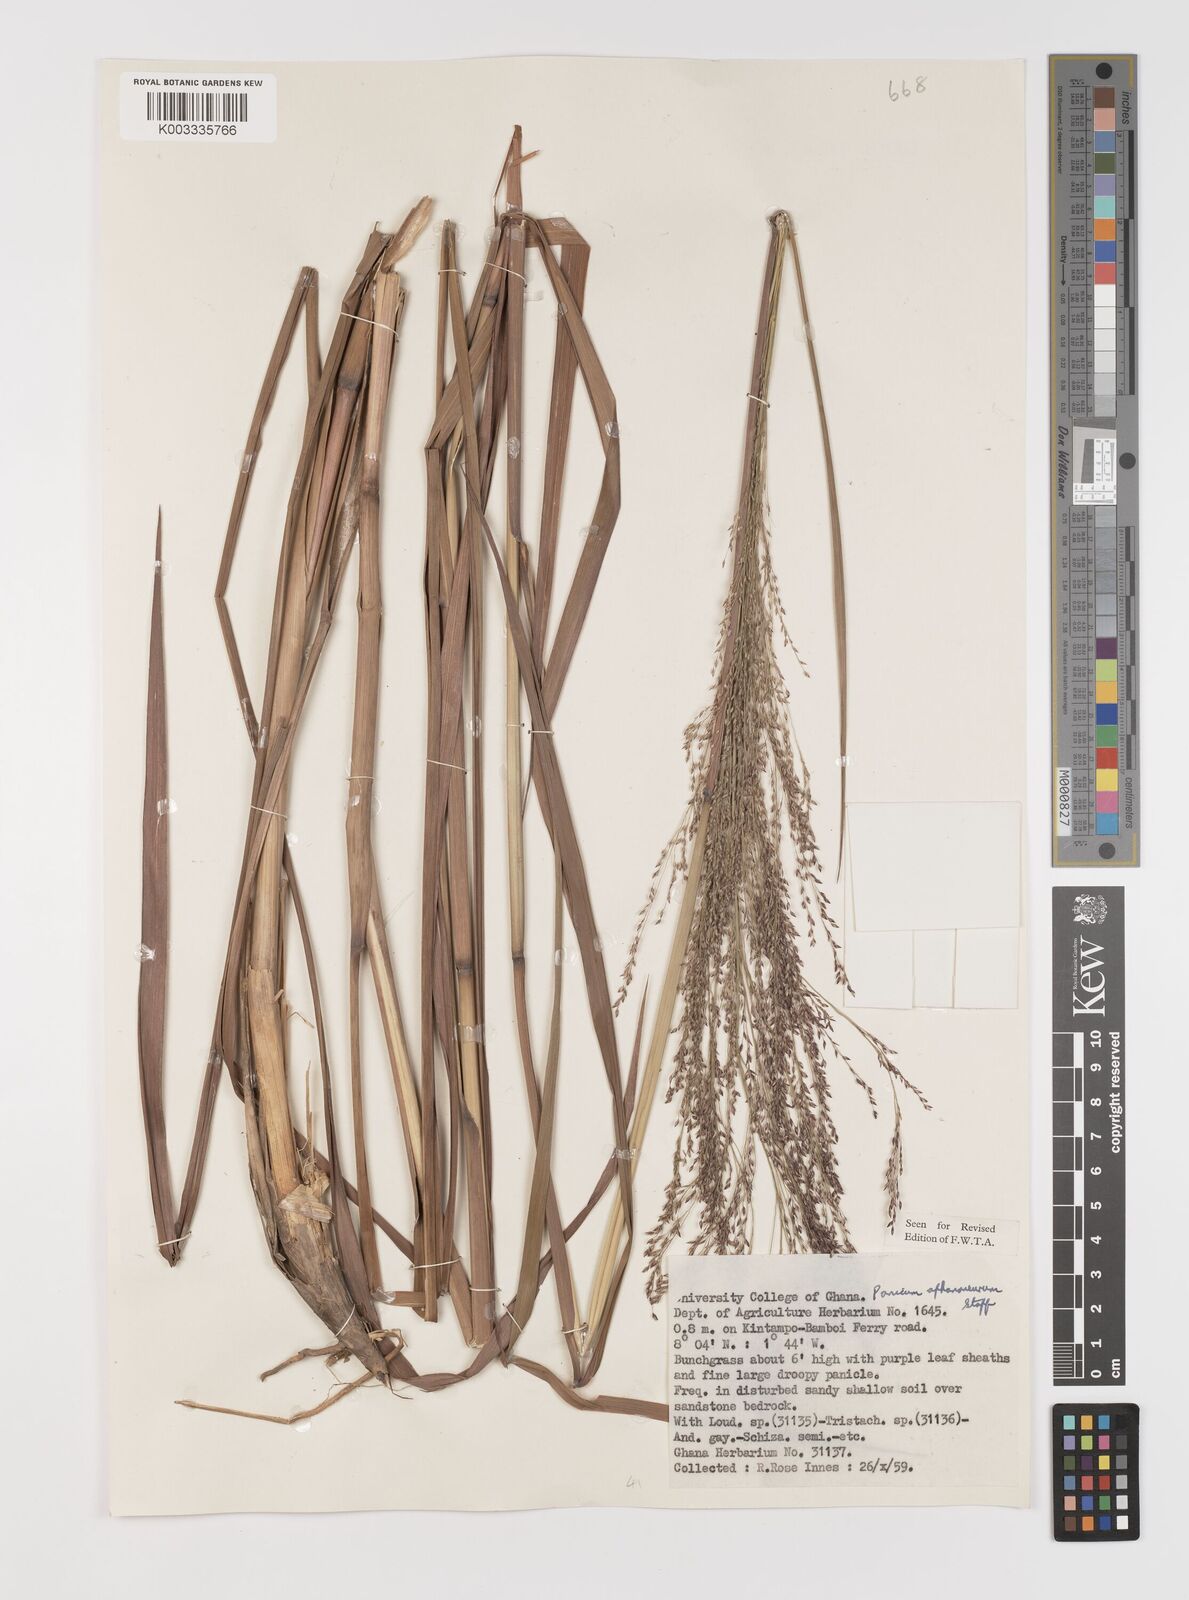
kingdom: Plantae
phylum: Tracheophyta
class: Liliopsida
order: Poales
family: Poaceae
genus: Panicum
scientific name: Panicum fluviicola
